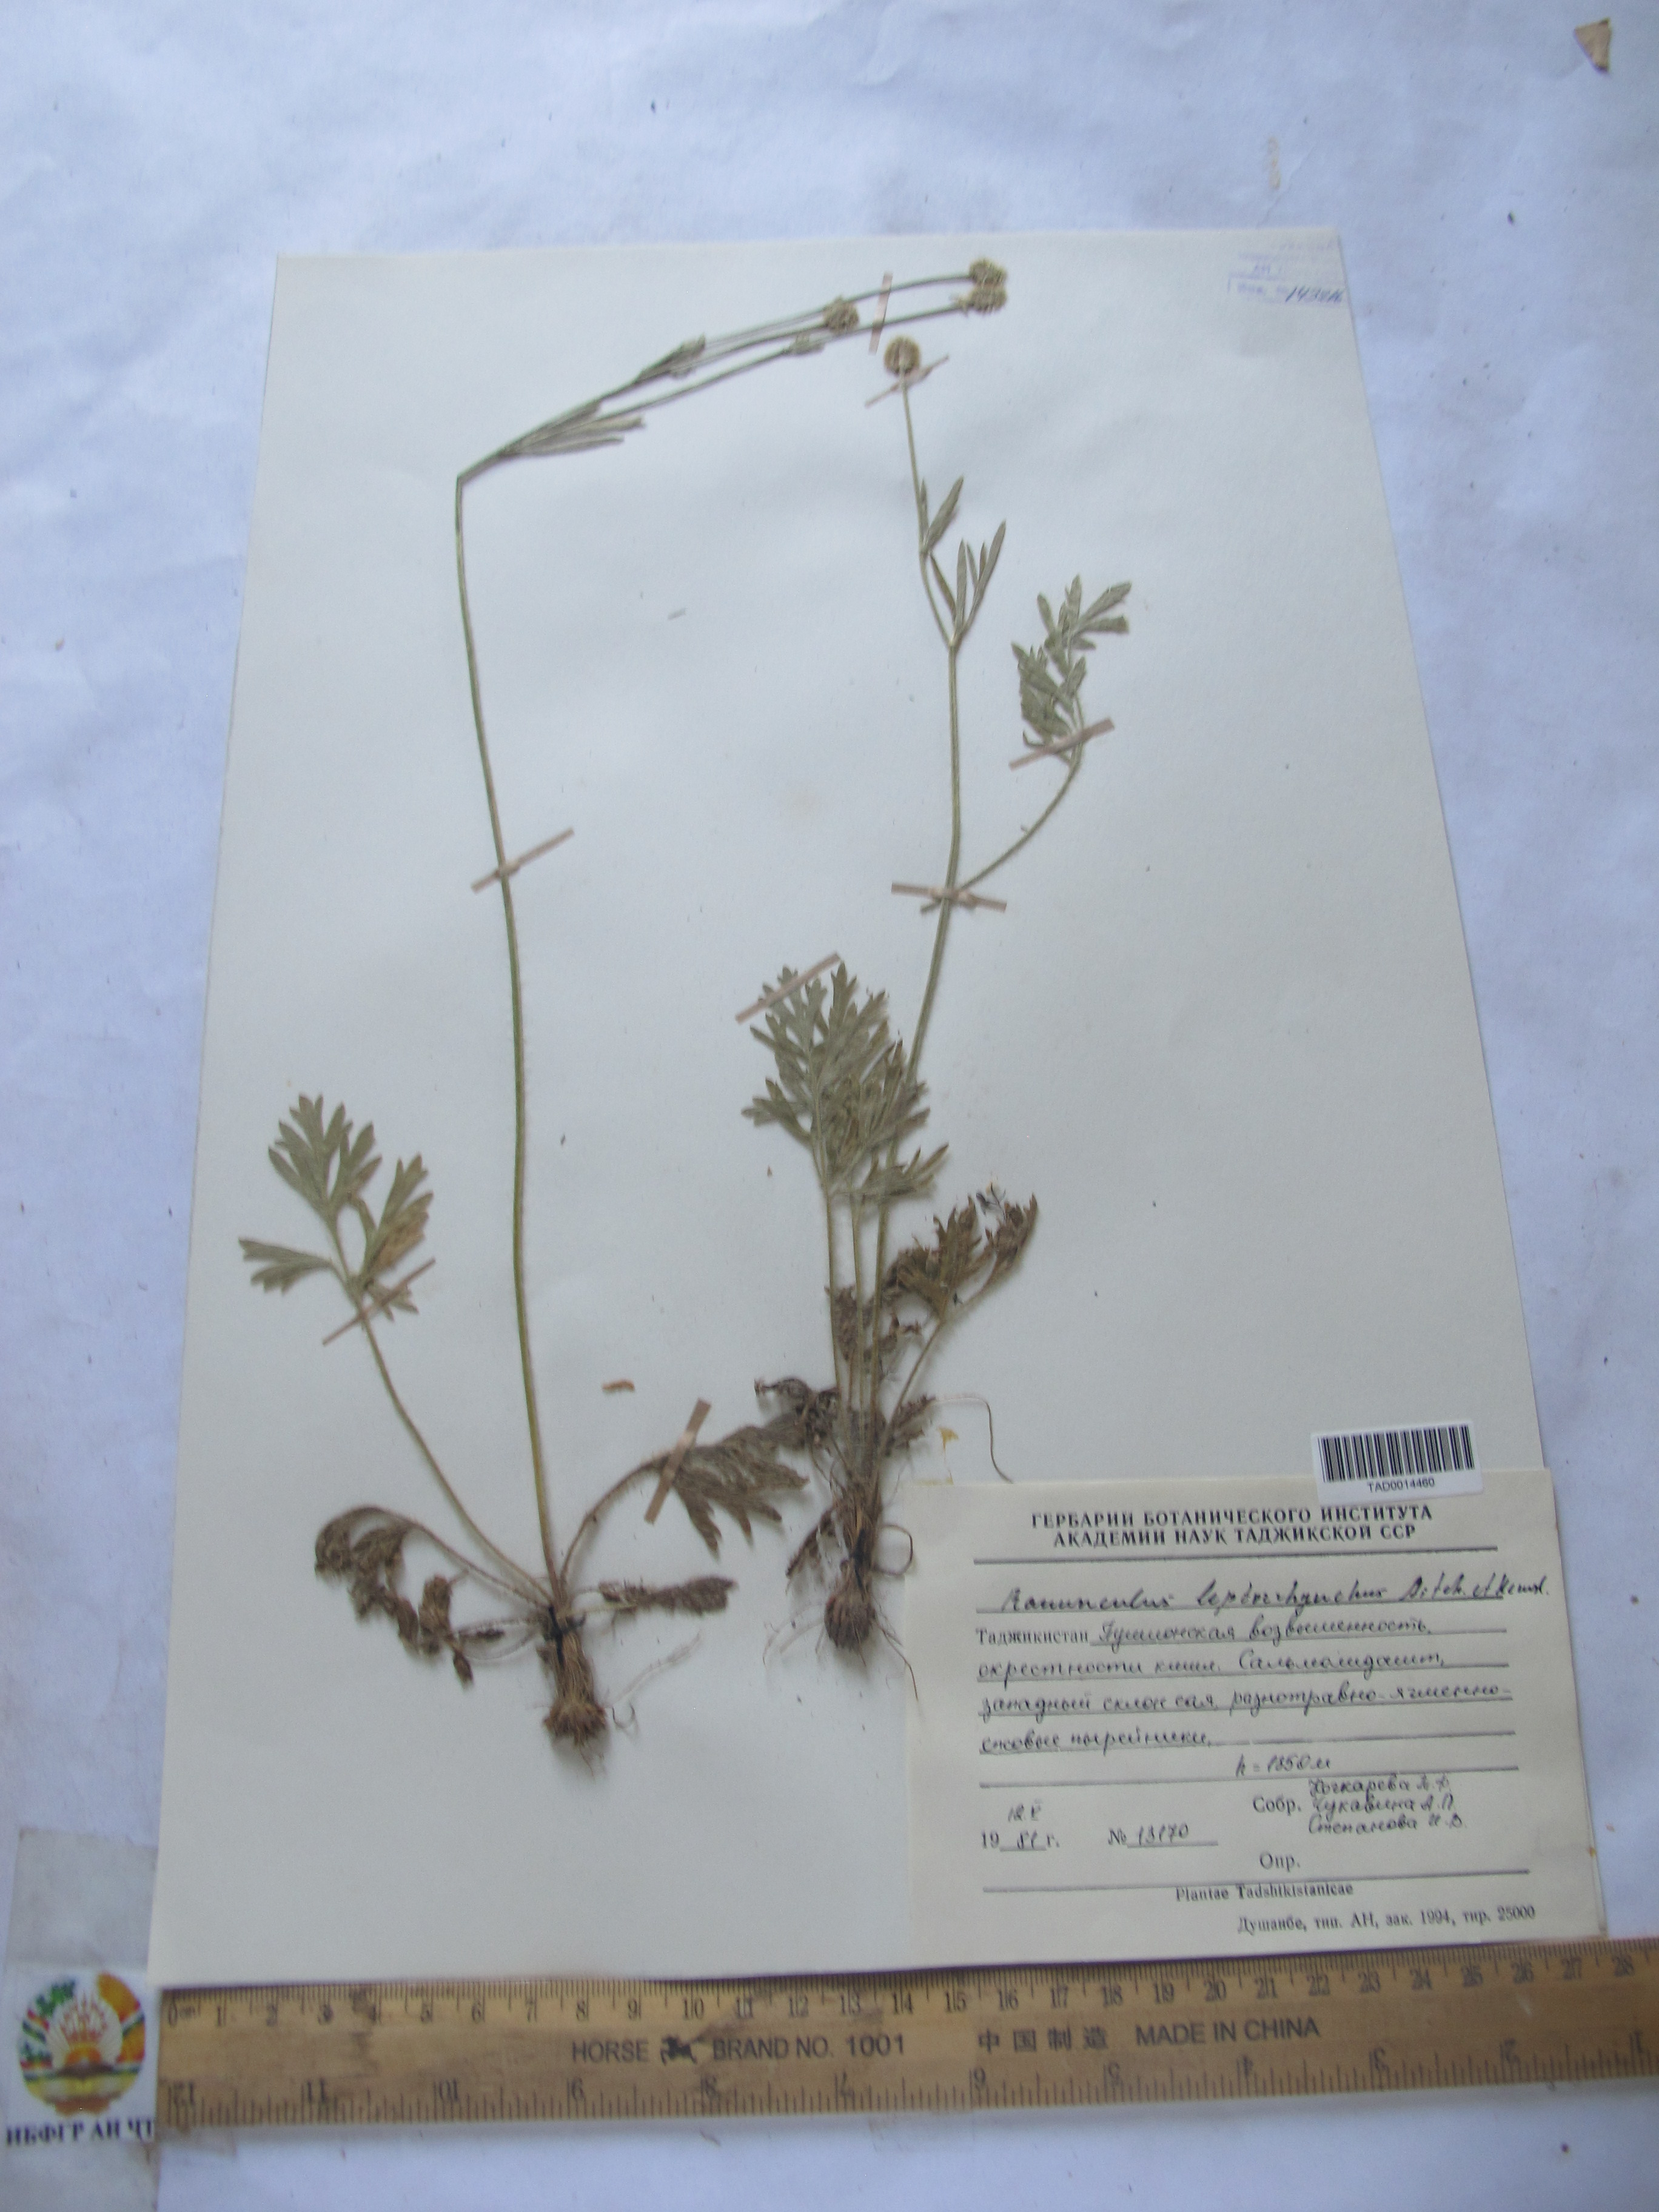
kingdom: Plantae
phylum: Tracheophyta
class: Magnoliopsida
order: Ranunculales
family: Ranunculaceae
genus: Ranunculus
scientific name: Ranunculus leptorrhynchus
